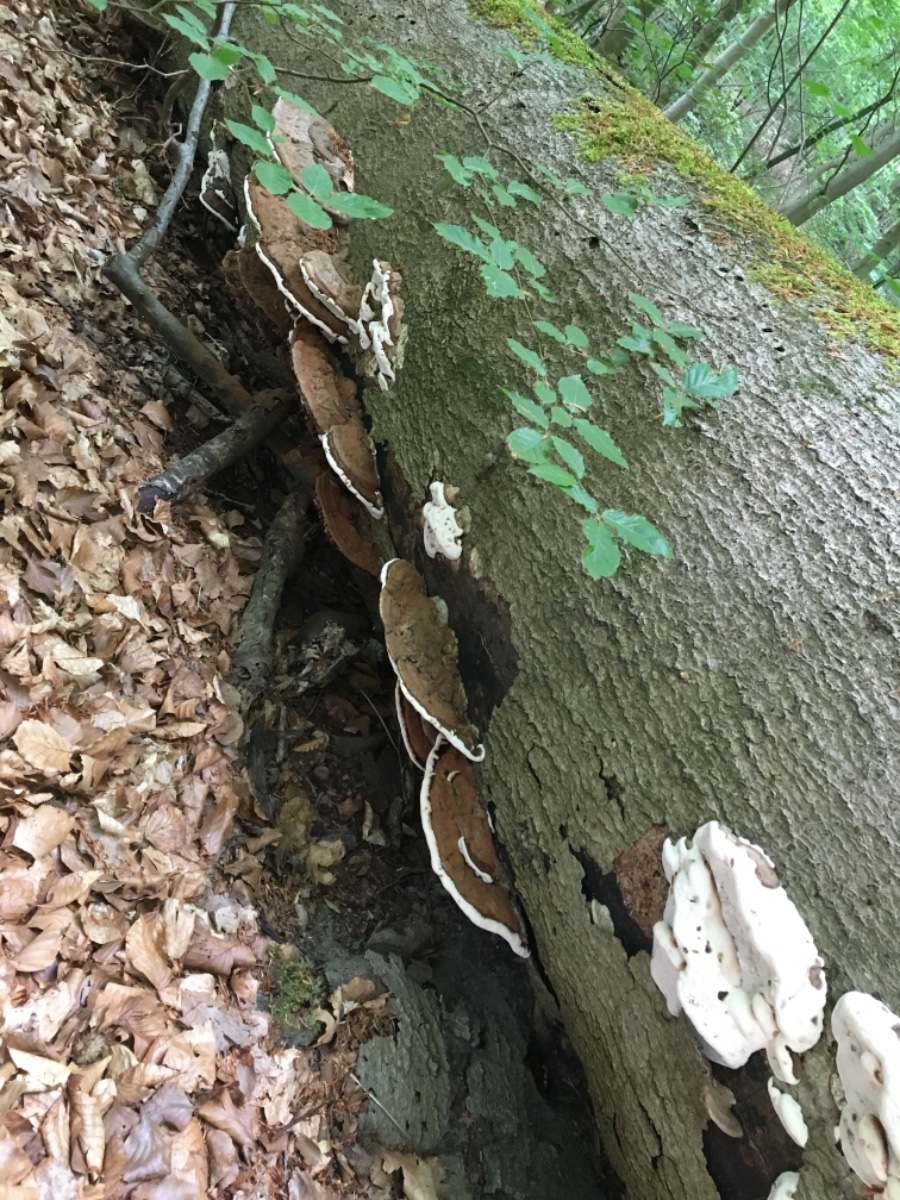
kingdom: Fungi
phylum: Basidiomycota
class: Agaricomycetes
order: Polyporales
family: Polyporaceae
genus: Ganoderma
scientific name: Ganoderma applanatum
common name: flad lakporesvamp
